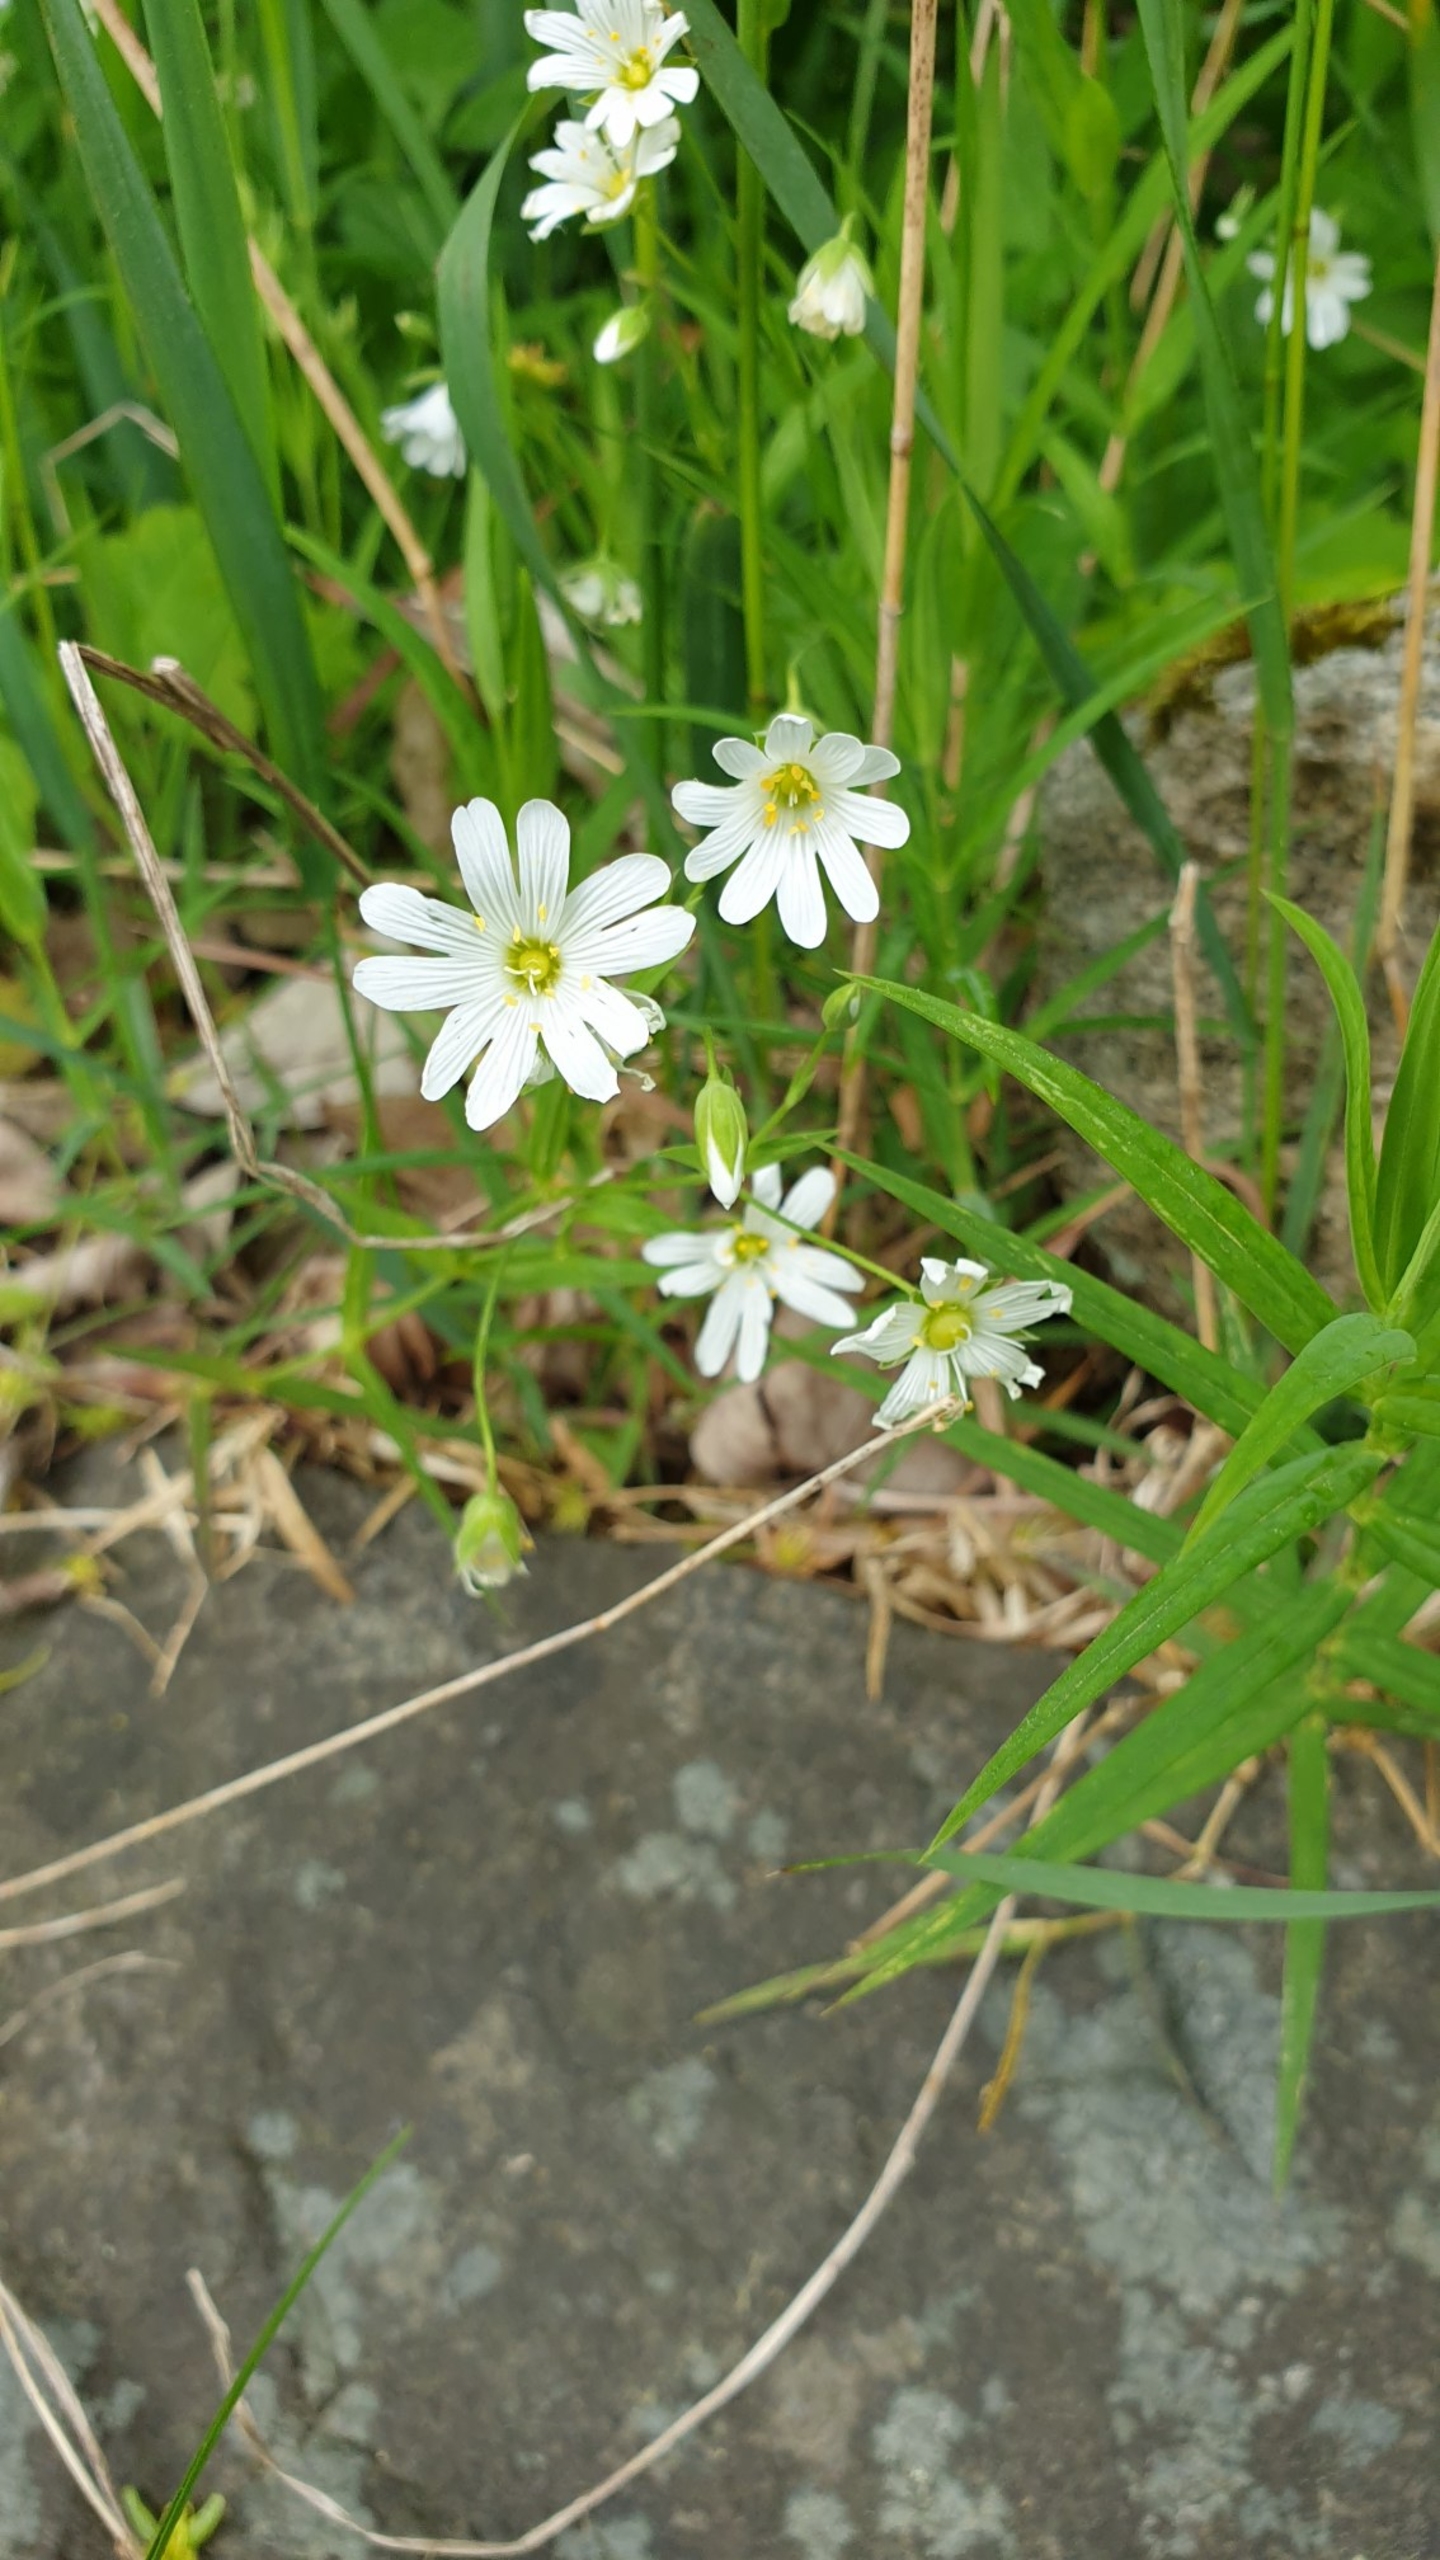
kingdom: Plantae
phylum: Tracheophyta
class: Magnoliopsida
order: Caryophyllales
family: Caryophyllaceae
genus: Rabelera
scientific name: Rabelera holostea
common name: Stor fladstjerne
